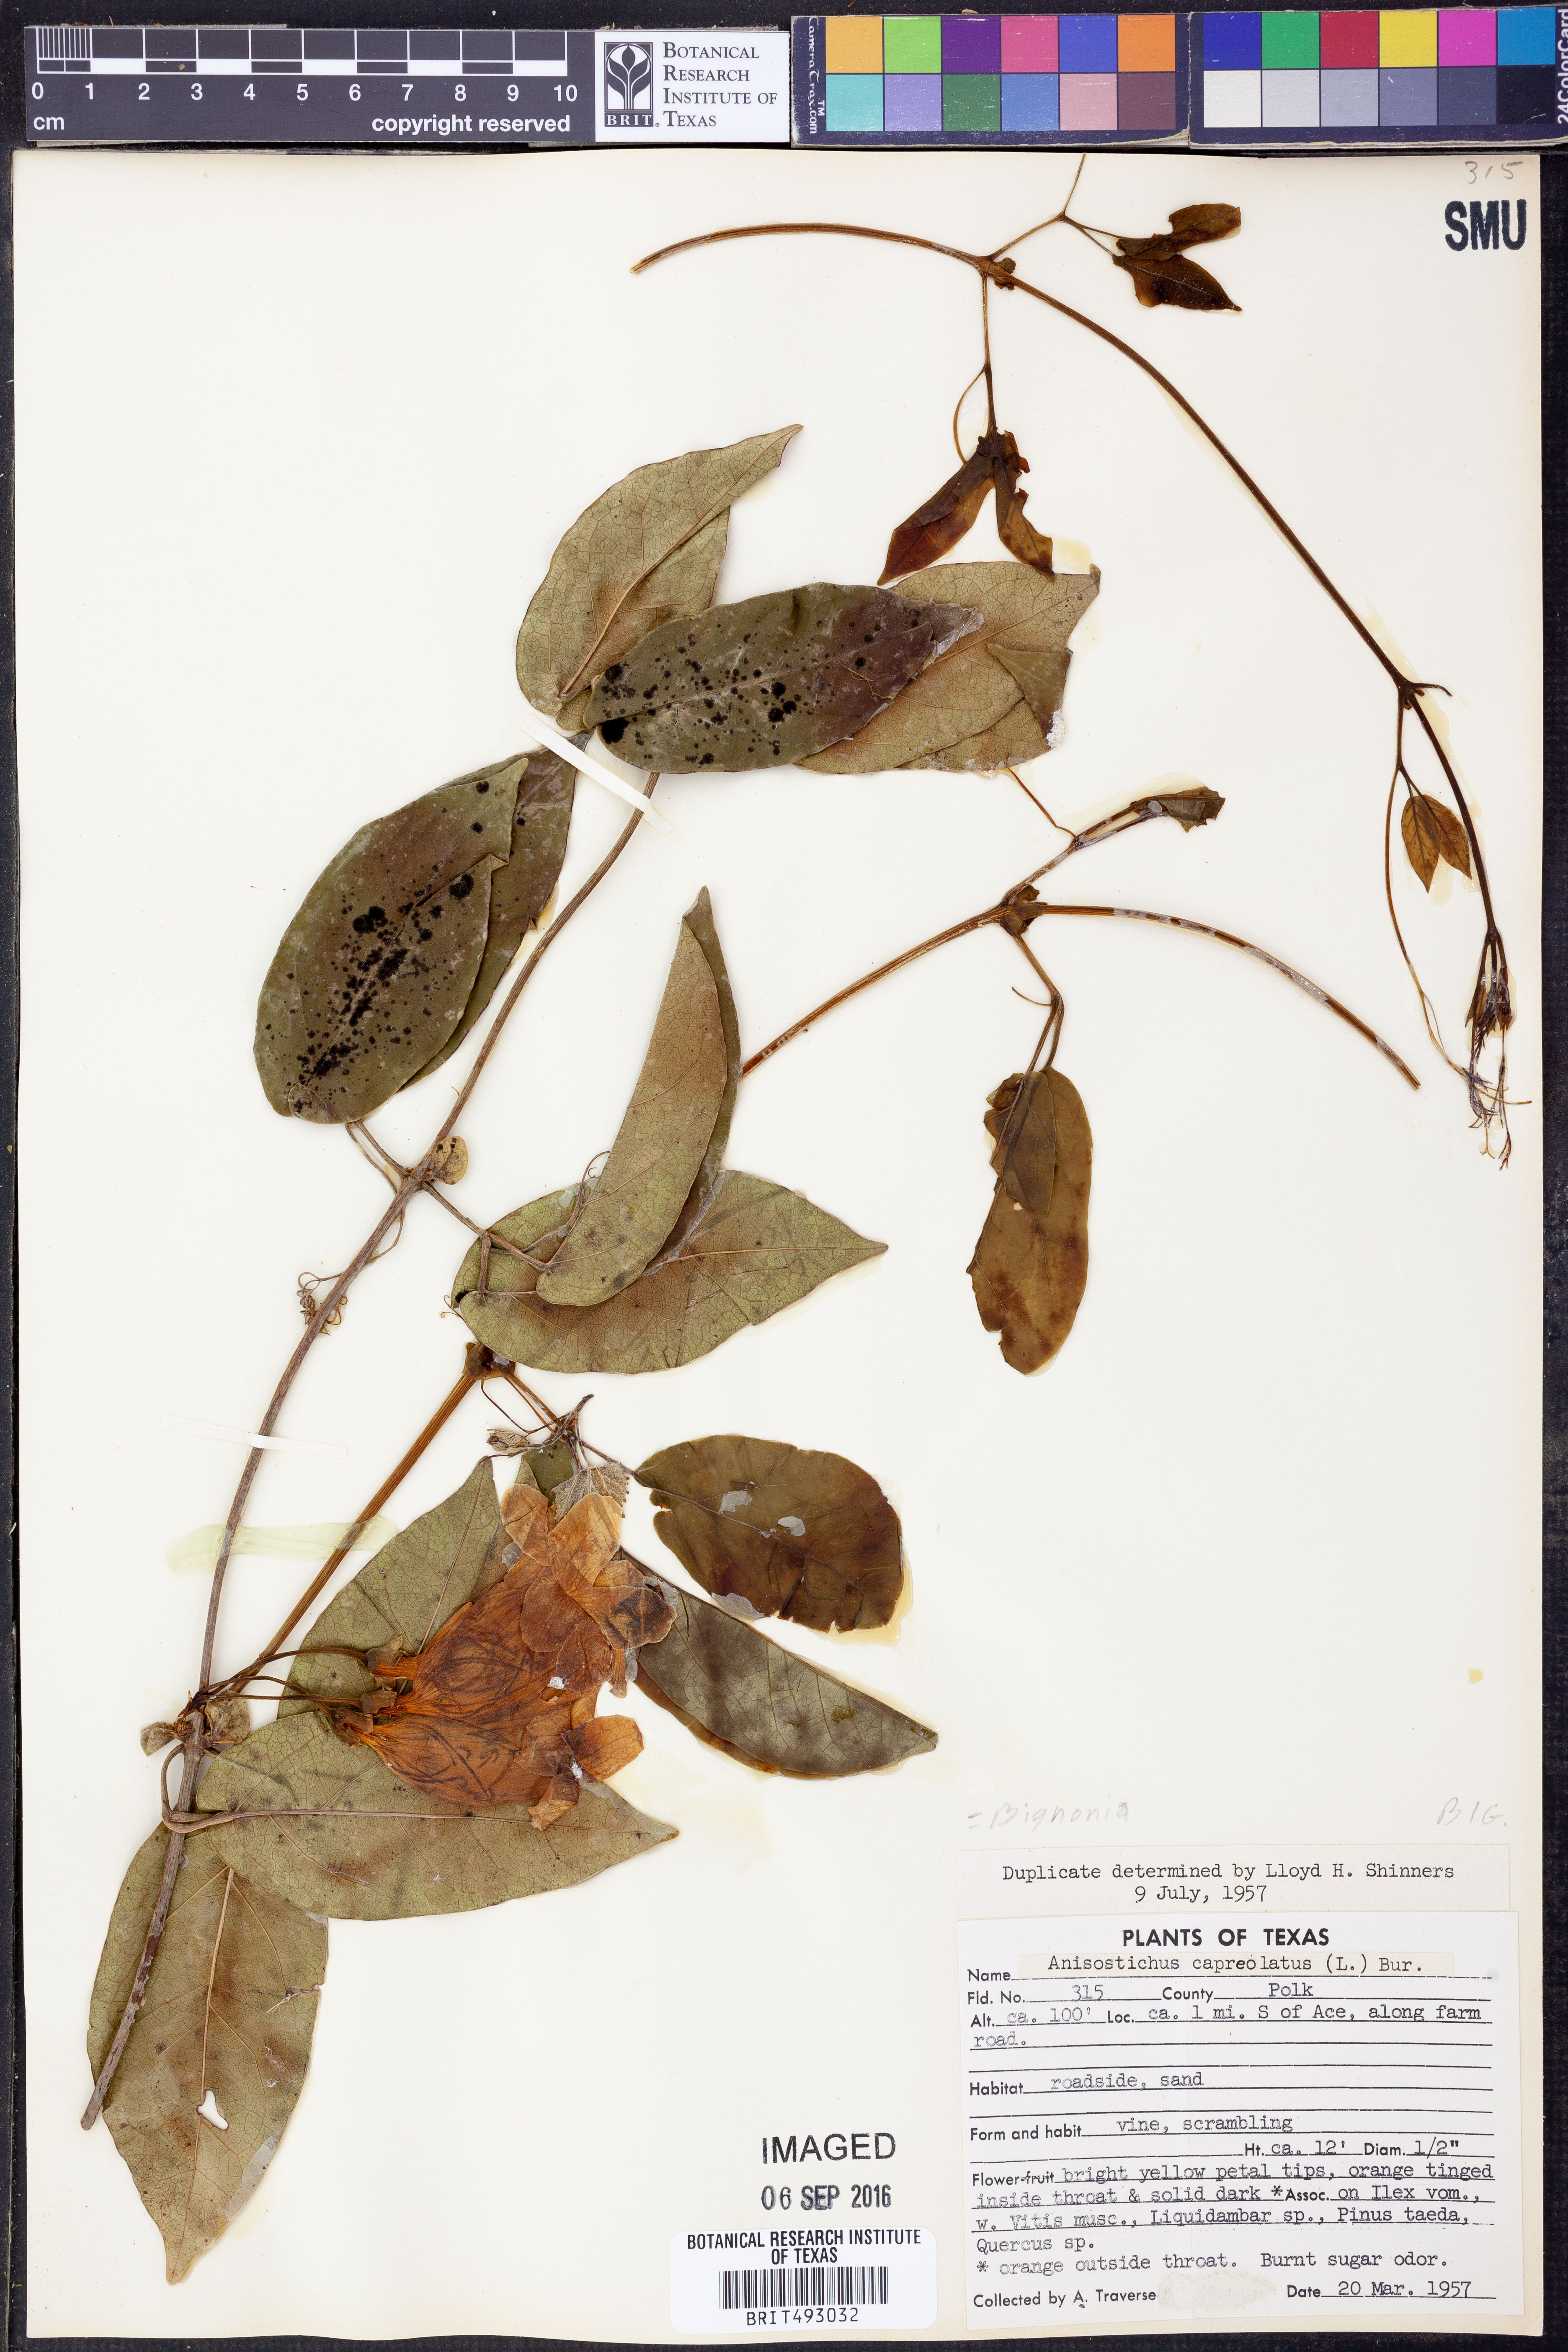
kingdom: Plantae
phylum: Tracheophyta
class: Magnoliopsida
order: Lamiales
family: Bignoniaceae
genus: Bignonia
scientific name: Bignonia capreolata
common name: Crossvine
